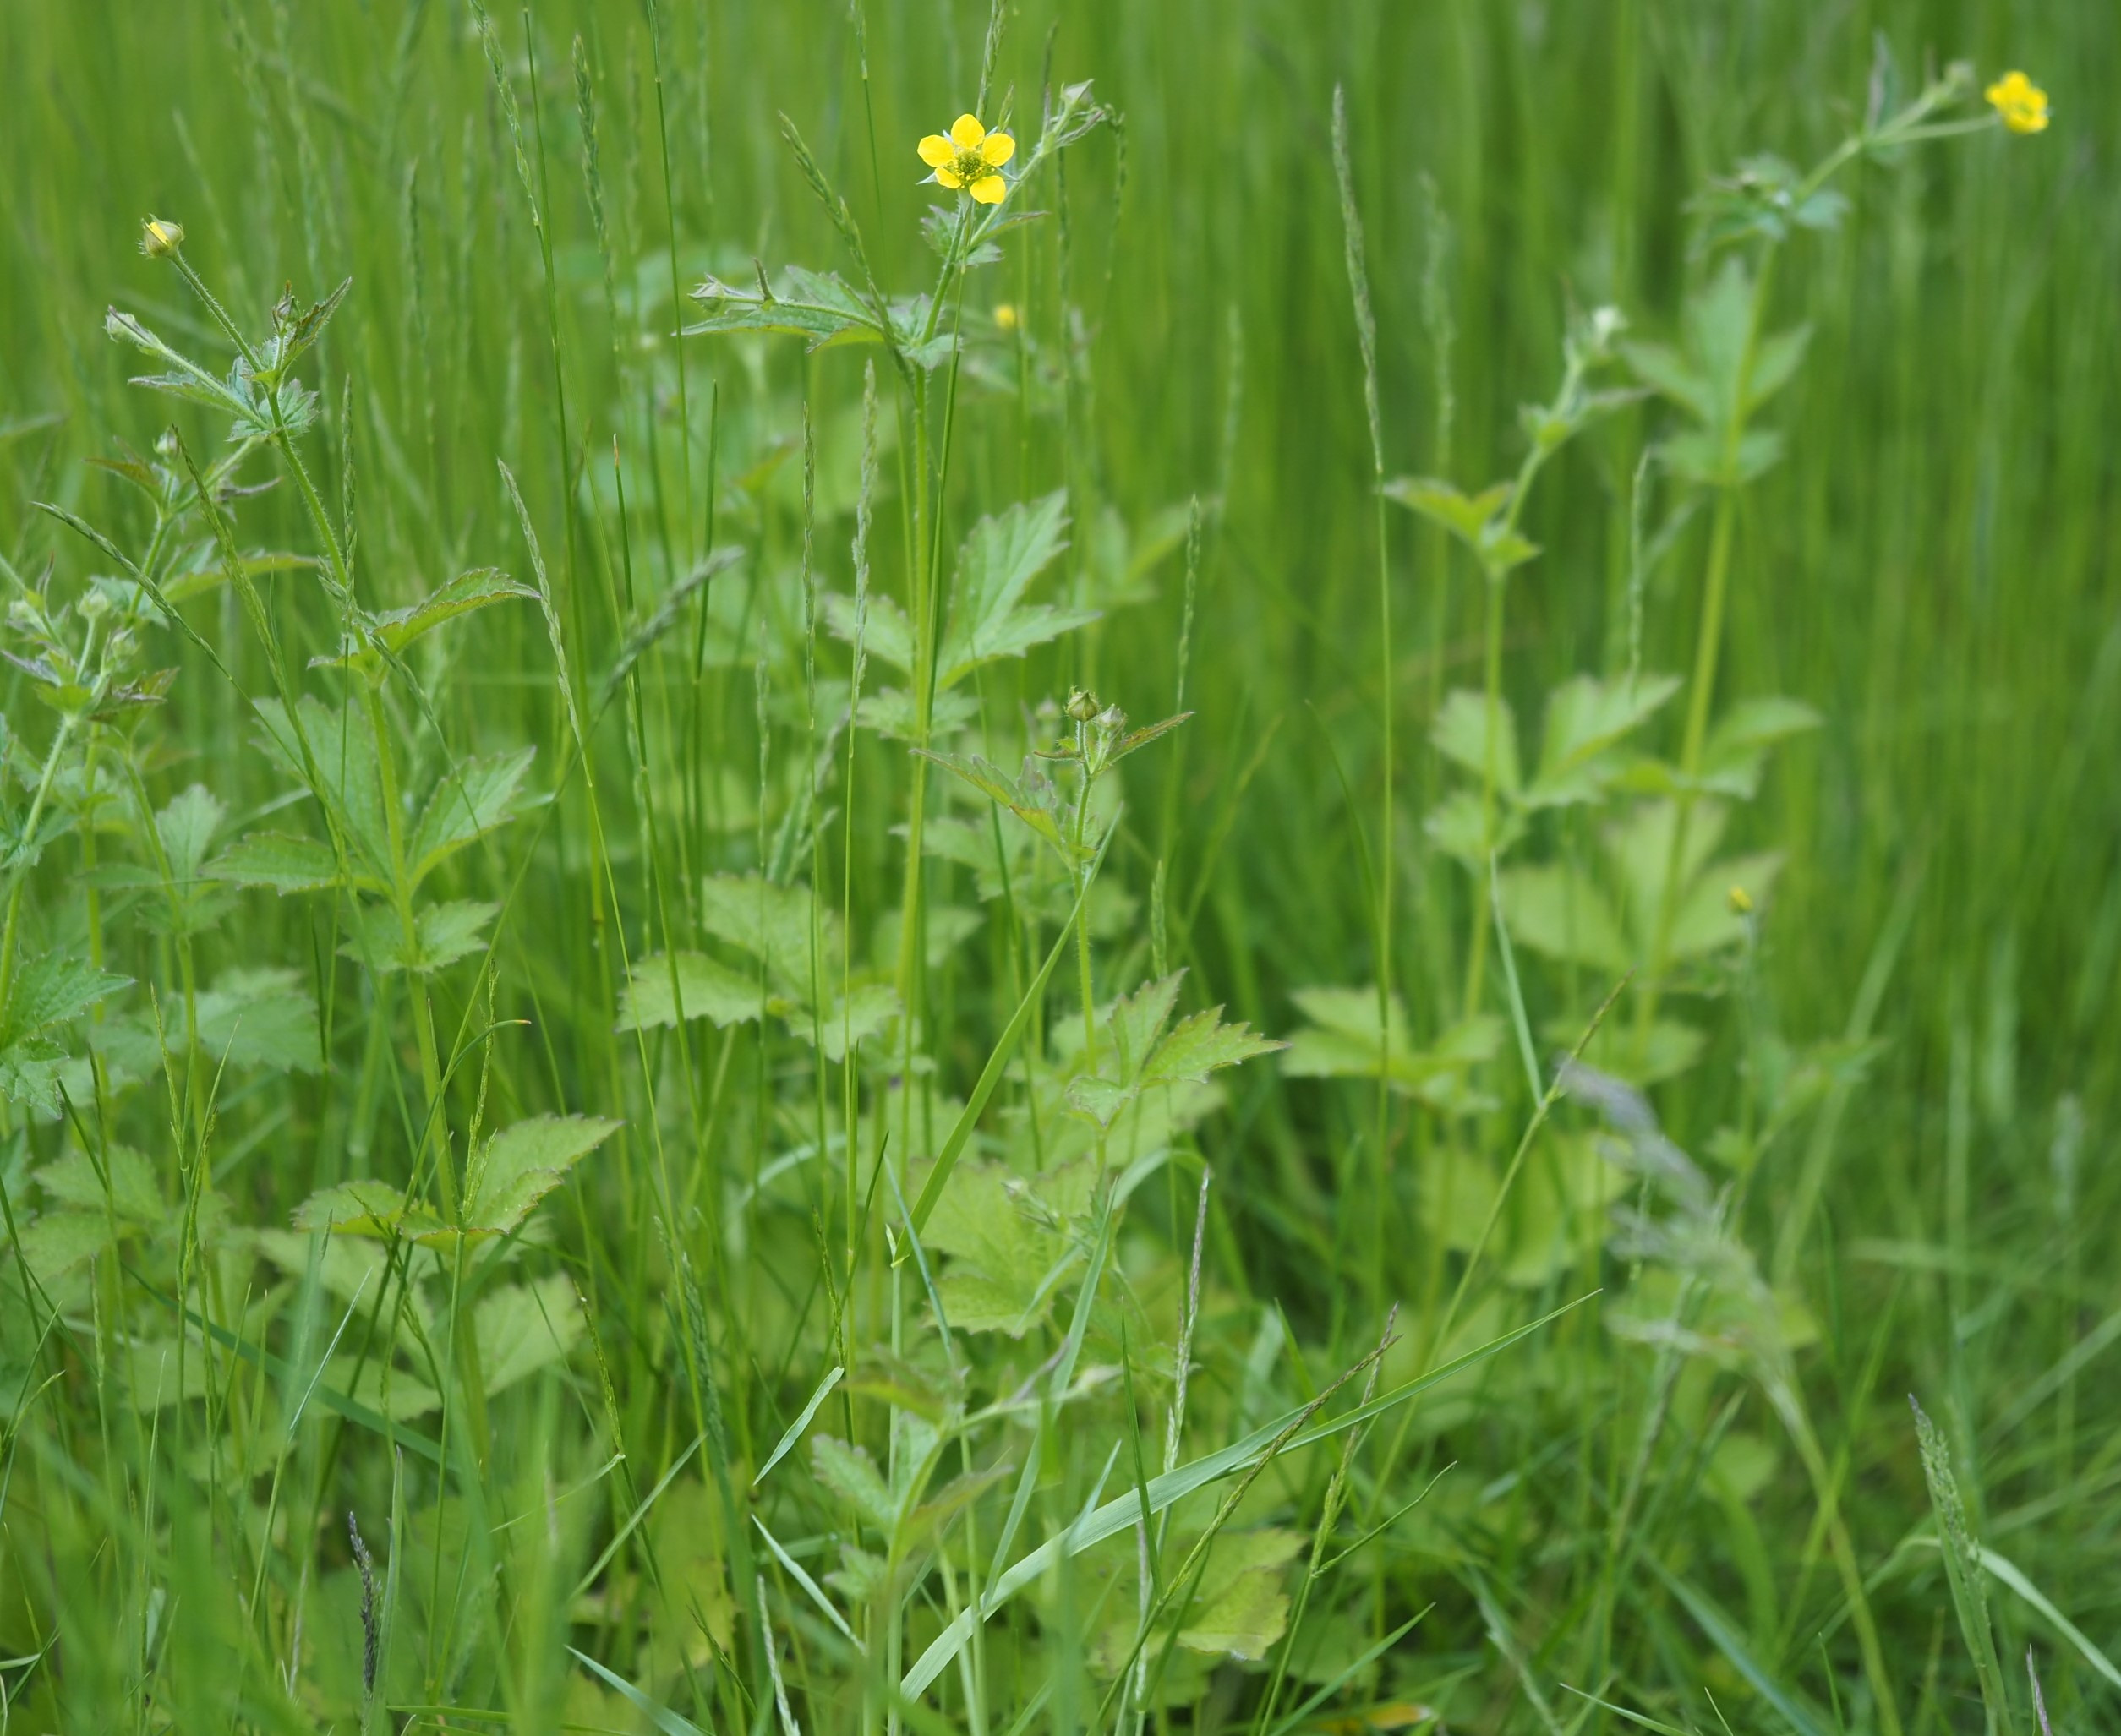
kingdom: Plantae
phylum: Tracheophyta
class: Magnoliopsida
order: Rosales
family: Rosaceae
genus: Geum
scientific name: Geum urbanum
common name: Feber-nellikerod
